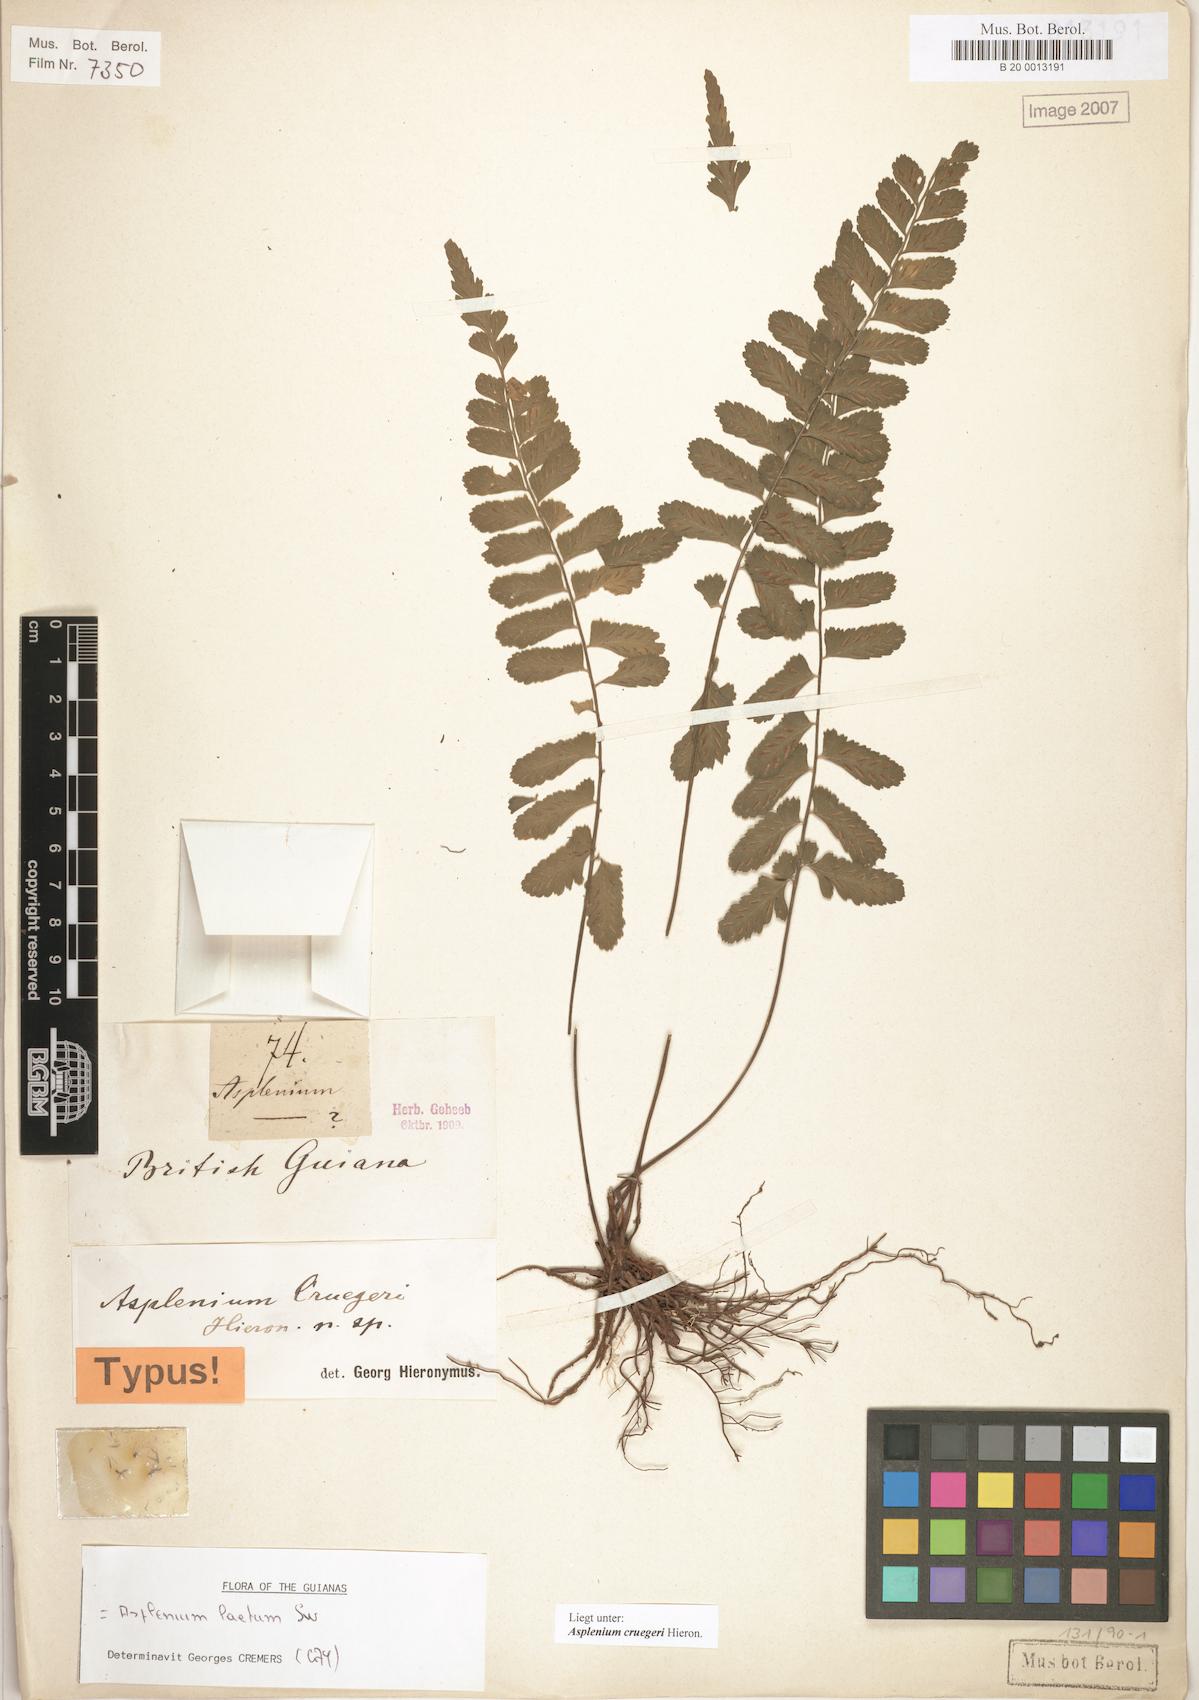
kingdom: Plantae
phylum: Tracheophyta
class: Polypodiopsida
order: Polypodiales
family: Aspleniaceae
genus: Asplenium
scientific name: Asplenium cruegeri
